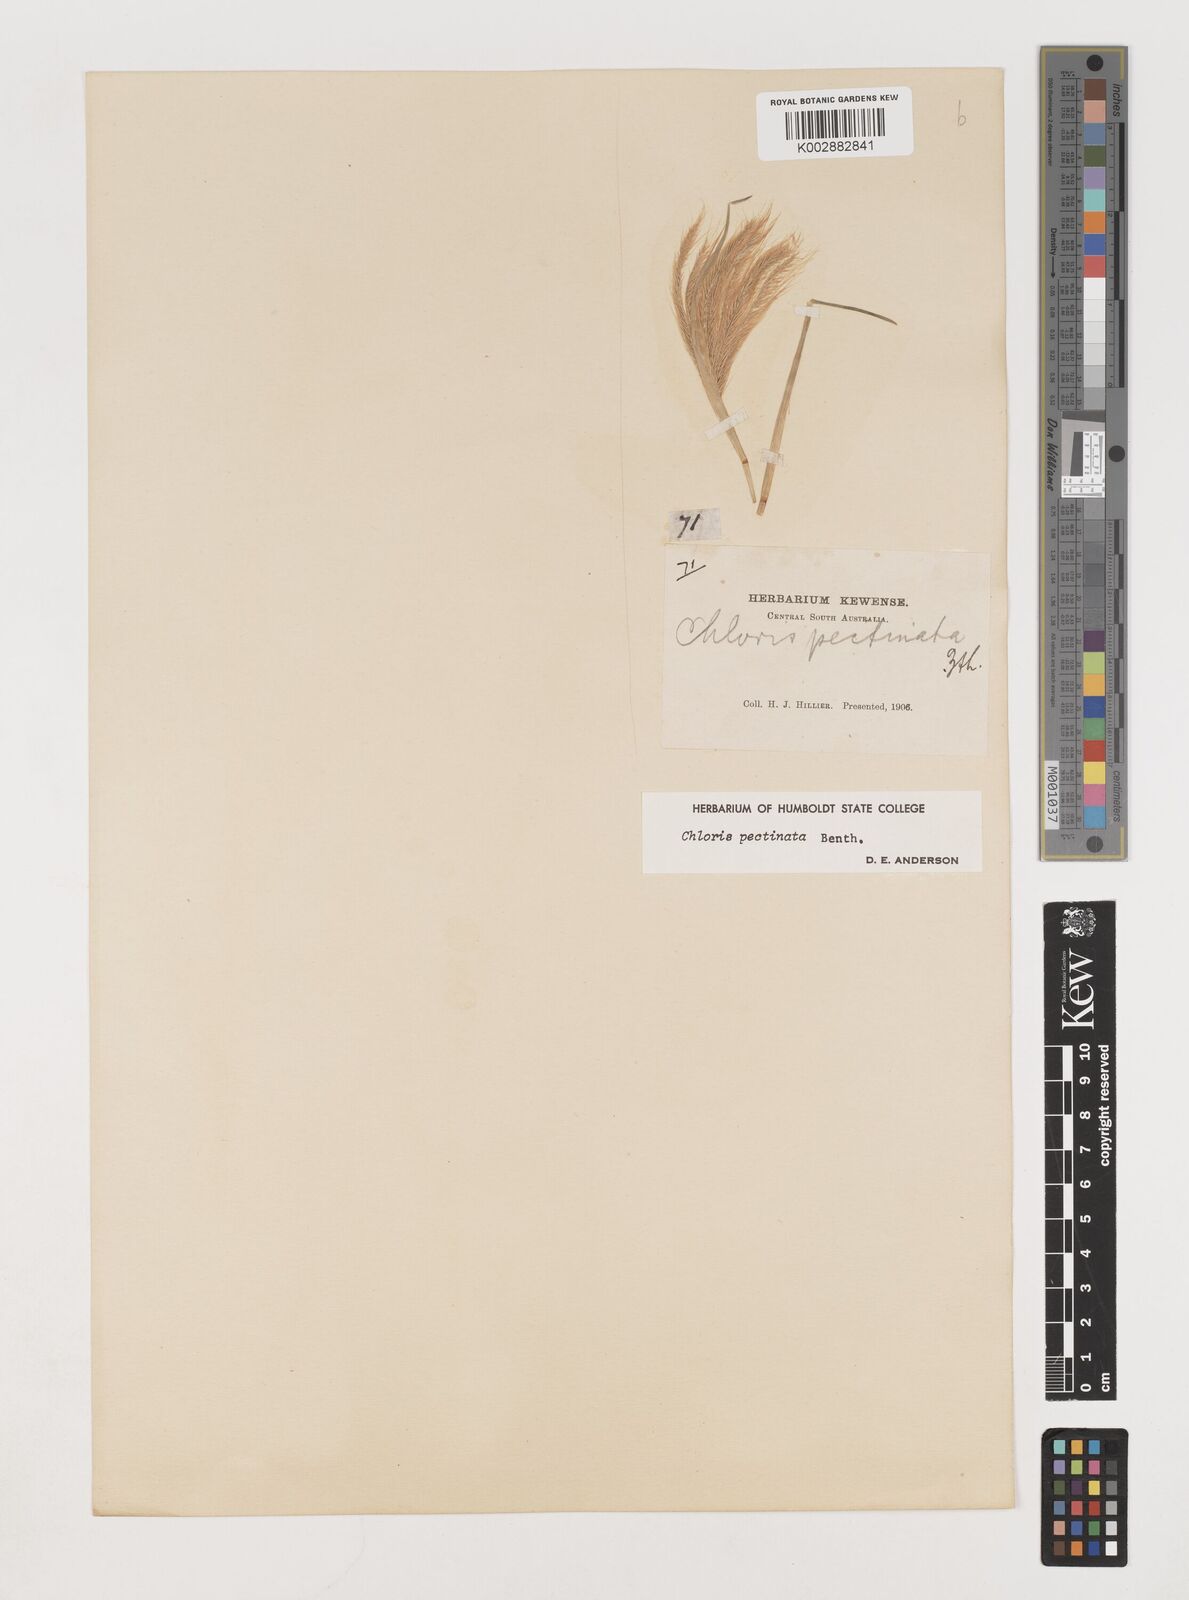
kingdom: Plantae
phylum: Tracheophyta
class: Liliopsida
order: Poales
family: Poaceae
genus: Chloris
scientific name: Chloris pectinata
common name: Comb windmill grass
